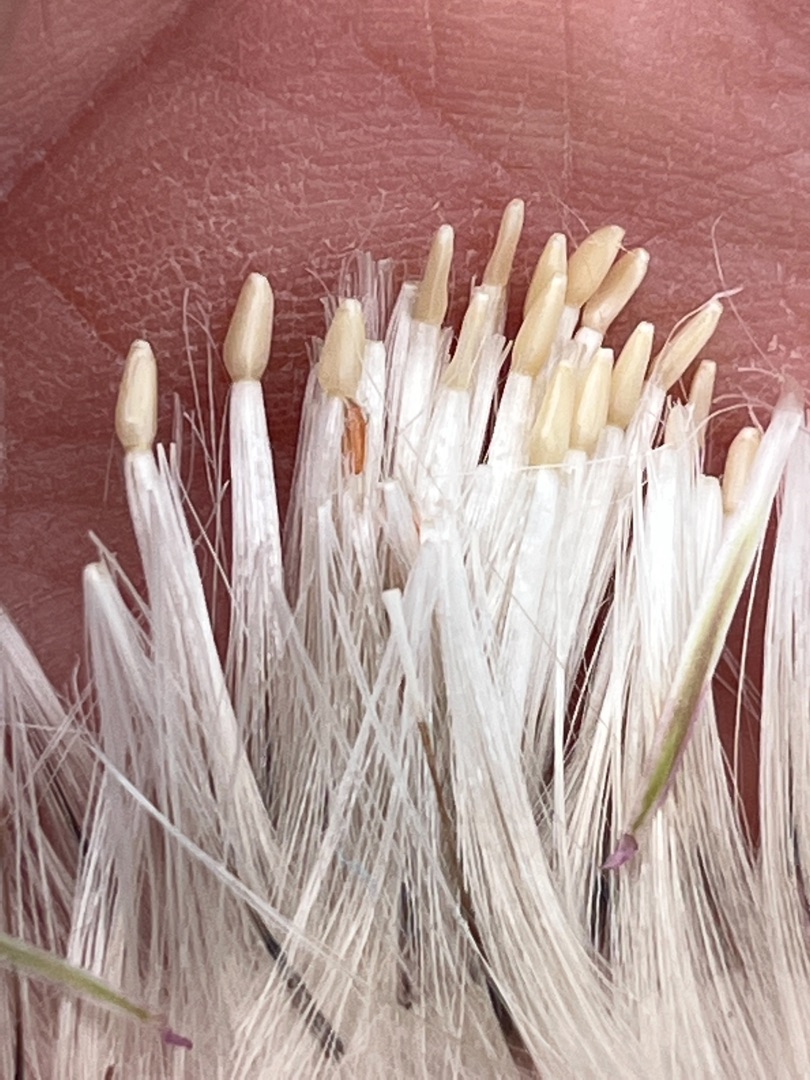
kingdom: Animalia
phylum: Arthropoda
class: Insecta
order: Diptera
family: Cecidomyiidae
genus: Jaapiella
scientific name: Jaapiella cirsiicola
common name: Tidselgalmyg
